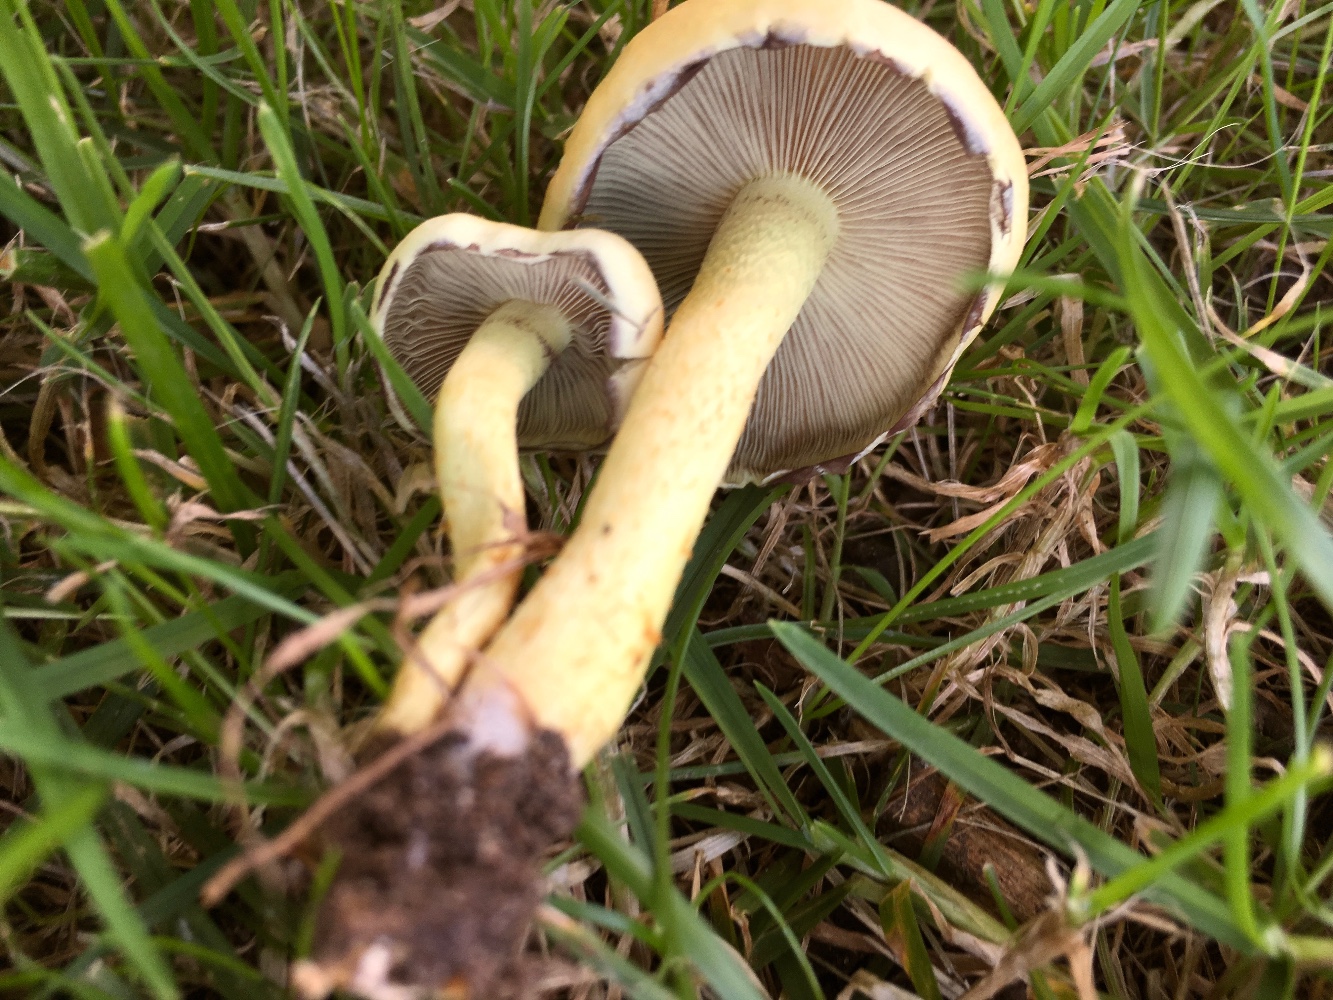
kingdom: Fungi
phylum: Basidiomycota
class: Agaricomycetes
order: Agaricales
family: Strophariaceae
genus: Hypholoma
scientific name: Hypholoma fasciculare
